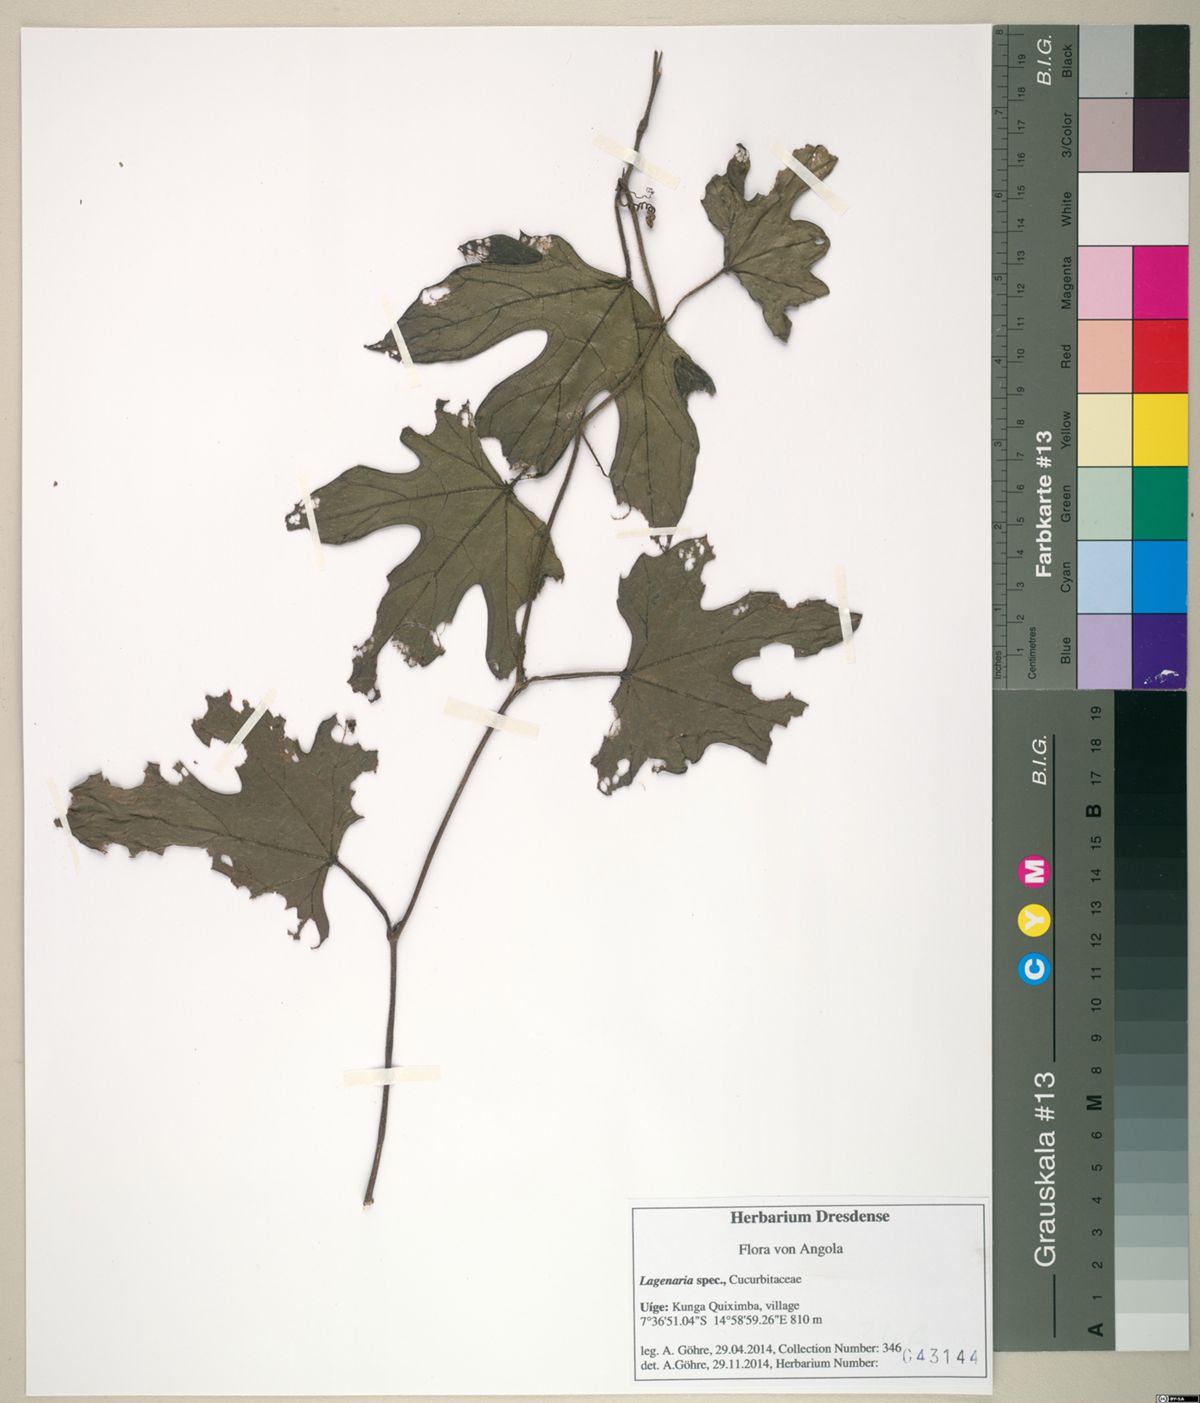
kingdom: Plantae
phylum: Tracheophyta
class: Magnoliopsida
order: Cucurbitales
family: Cucurbitaceae
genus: Lagenaria
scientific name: Lagenaria
